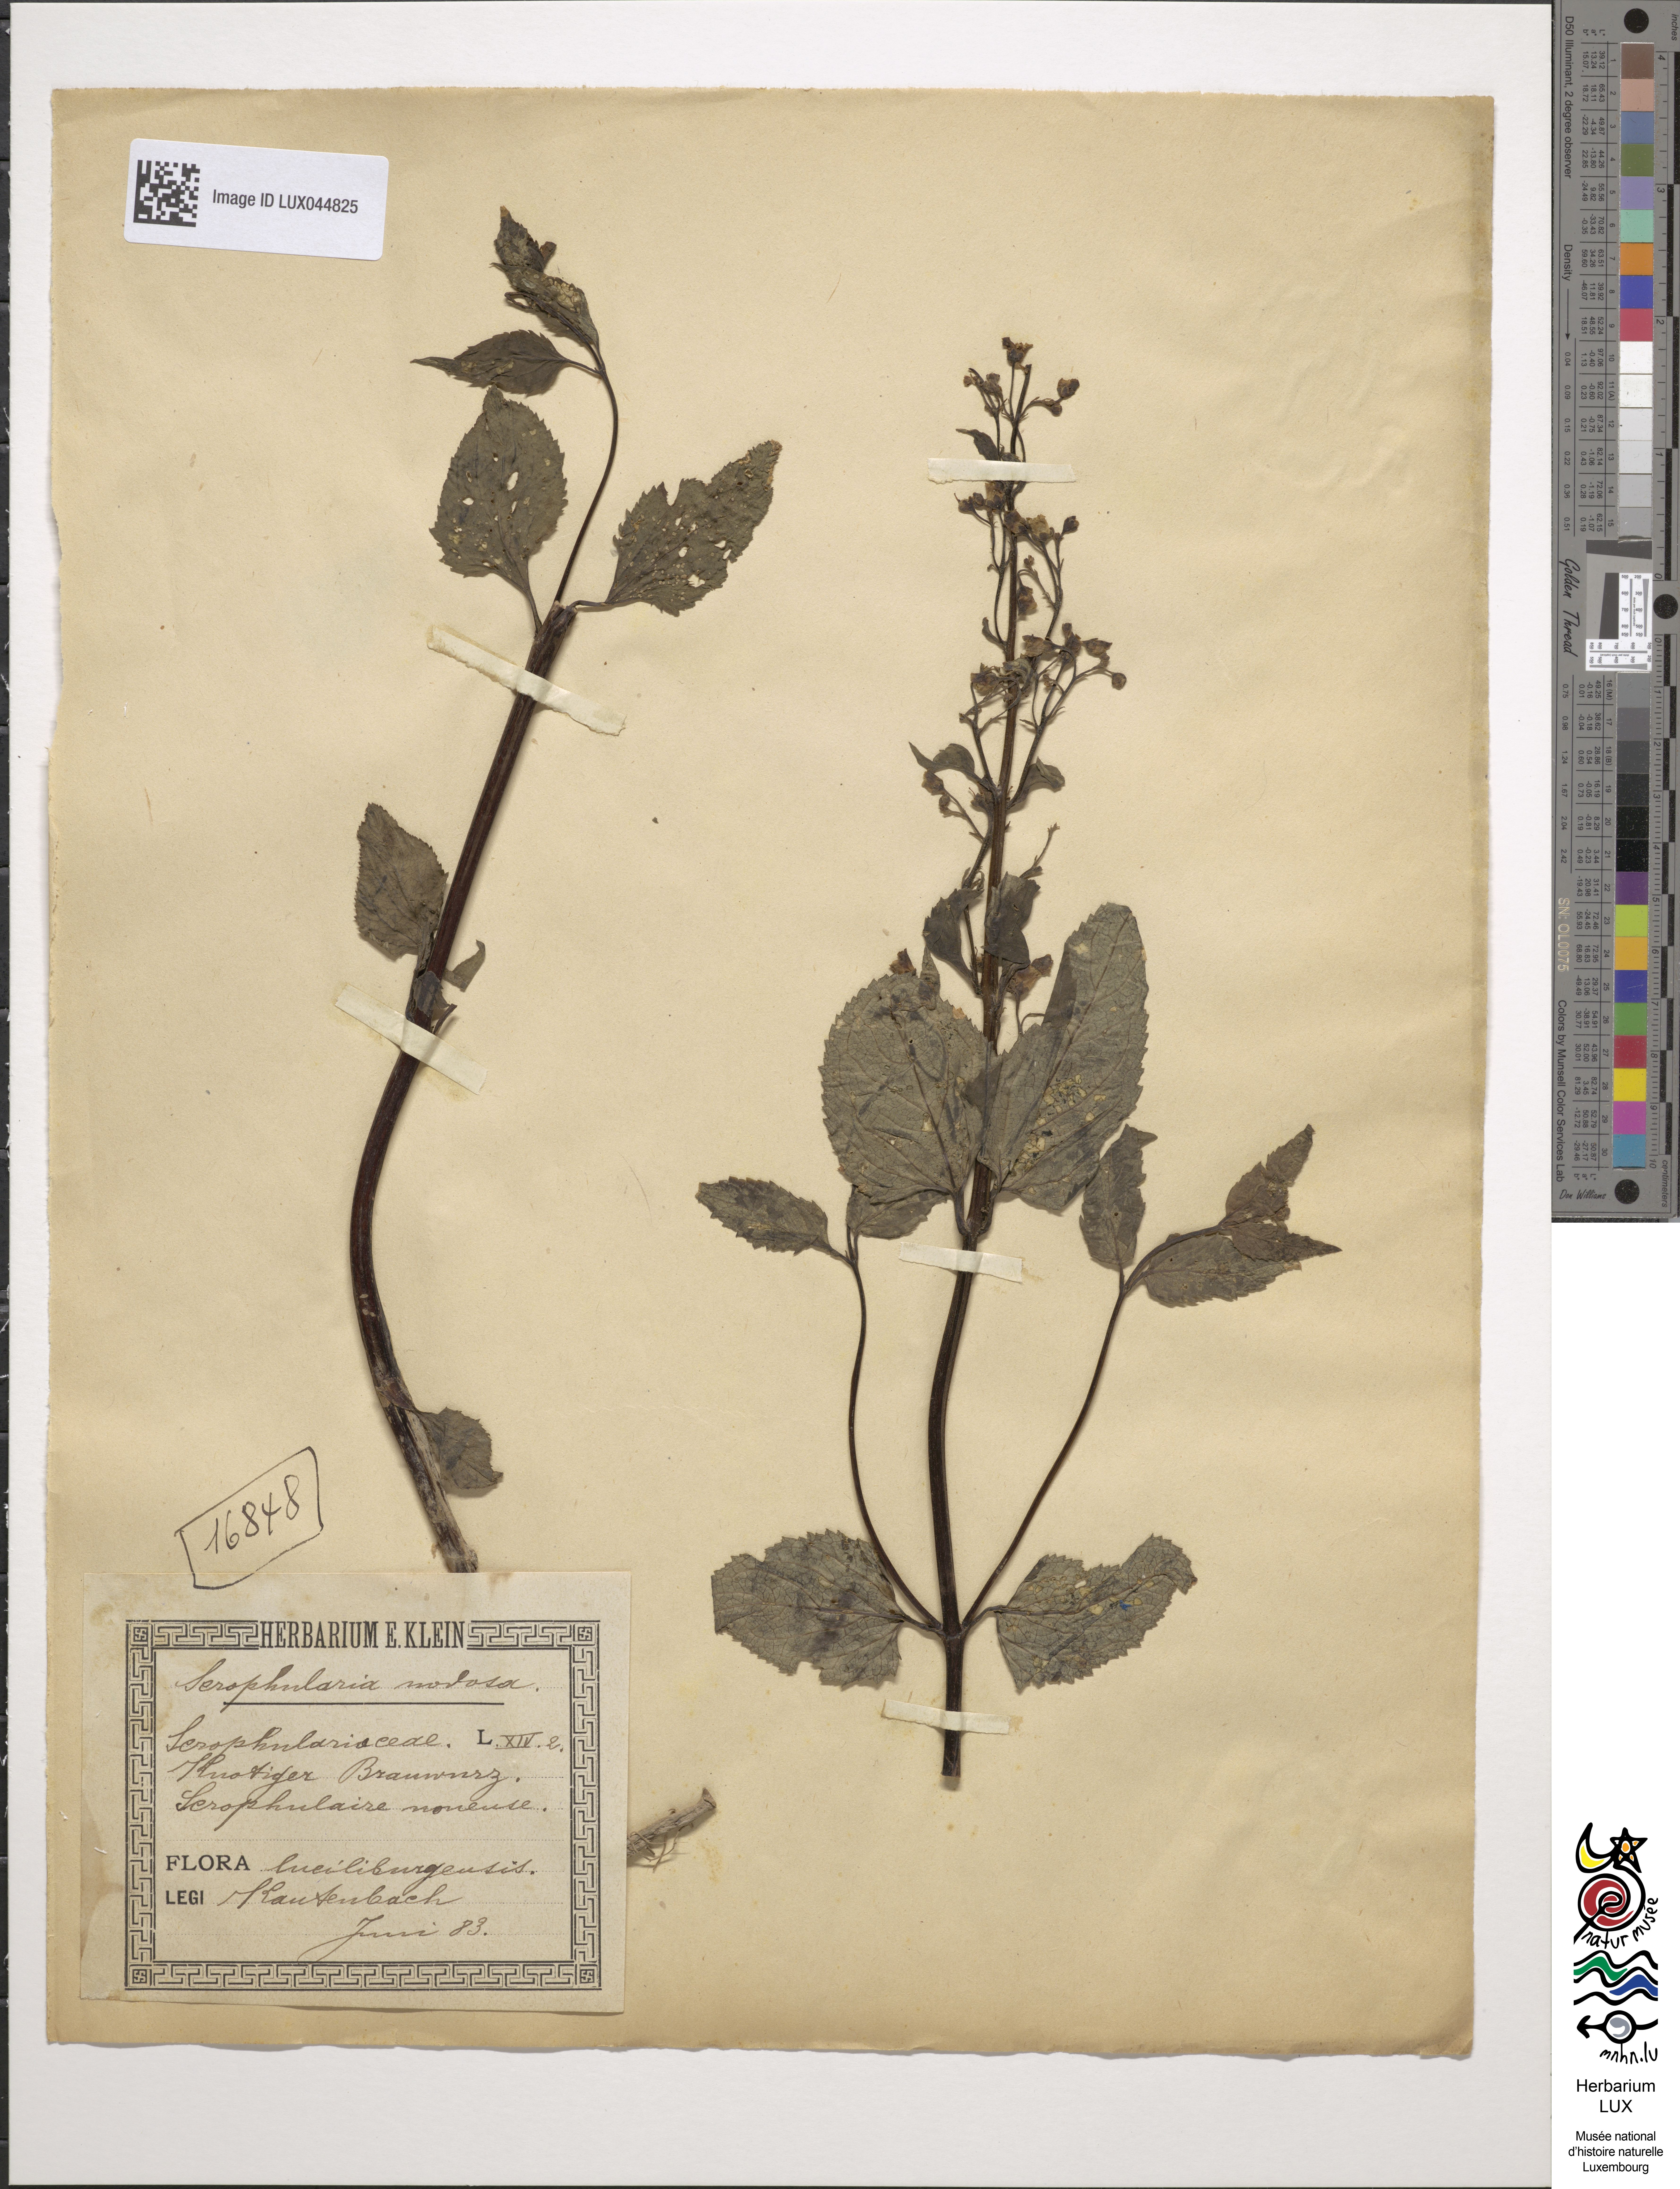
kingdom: Plantae
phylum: Tracheophyta
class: Magnoliopsida
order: Lamiales
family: Scrophulariaceae
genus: Scrophularia
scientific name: Scrophularia nodosa
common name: Common figwort
